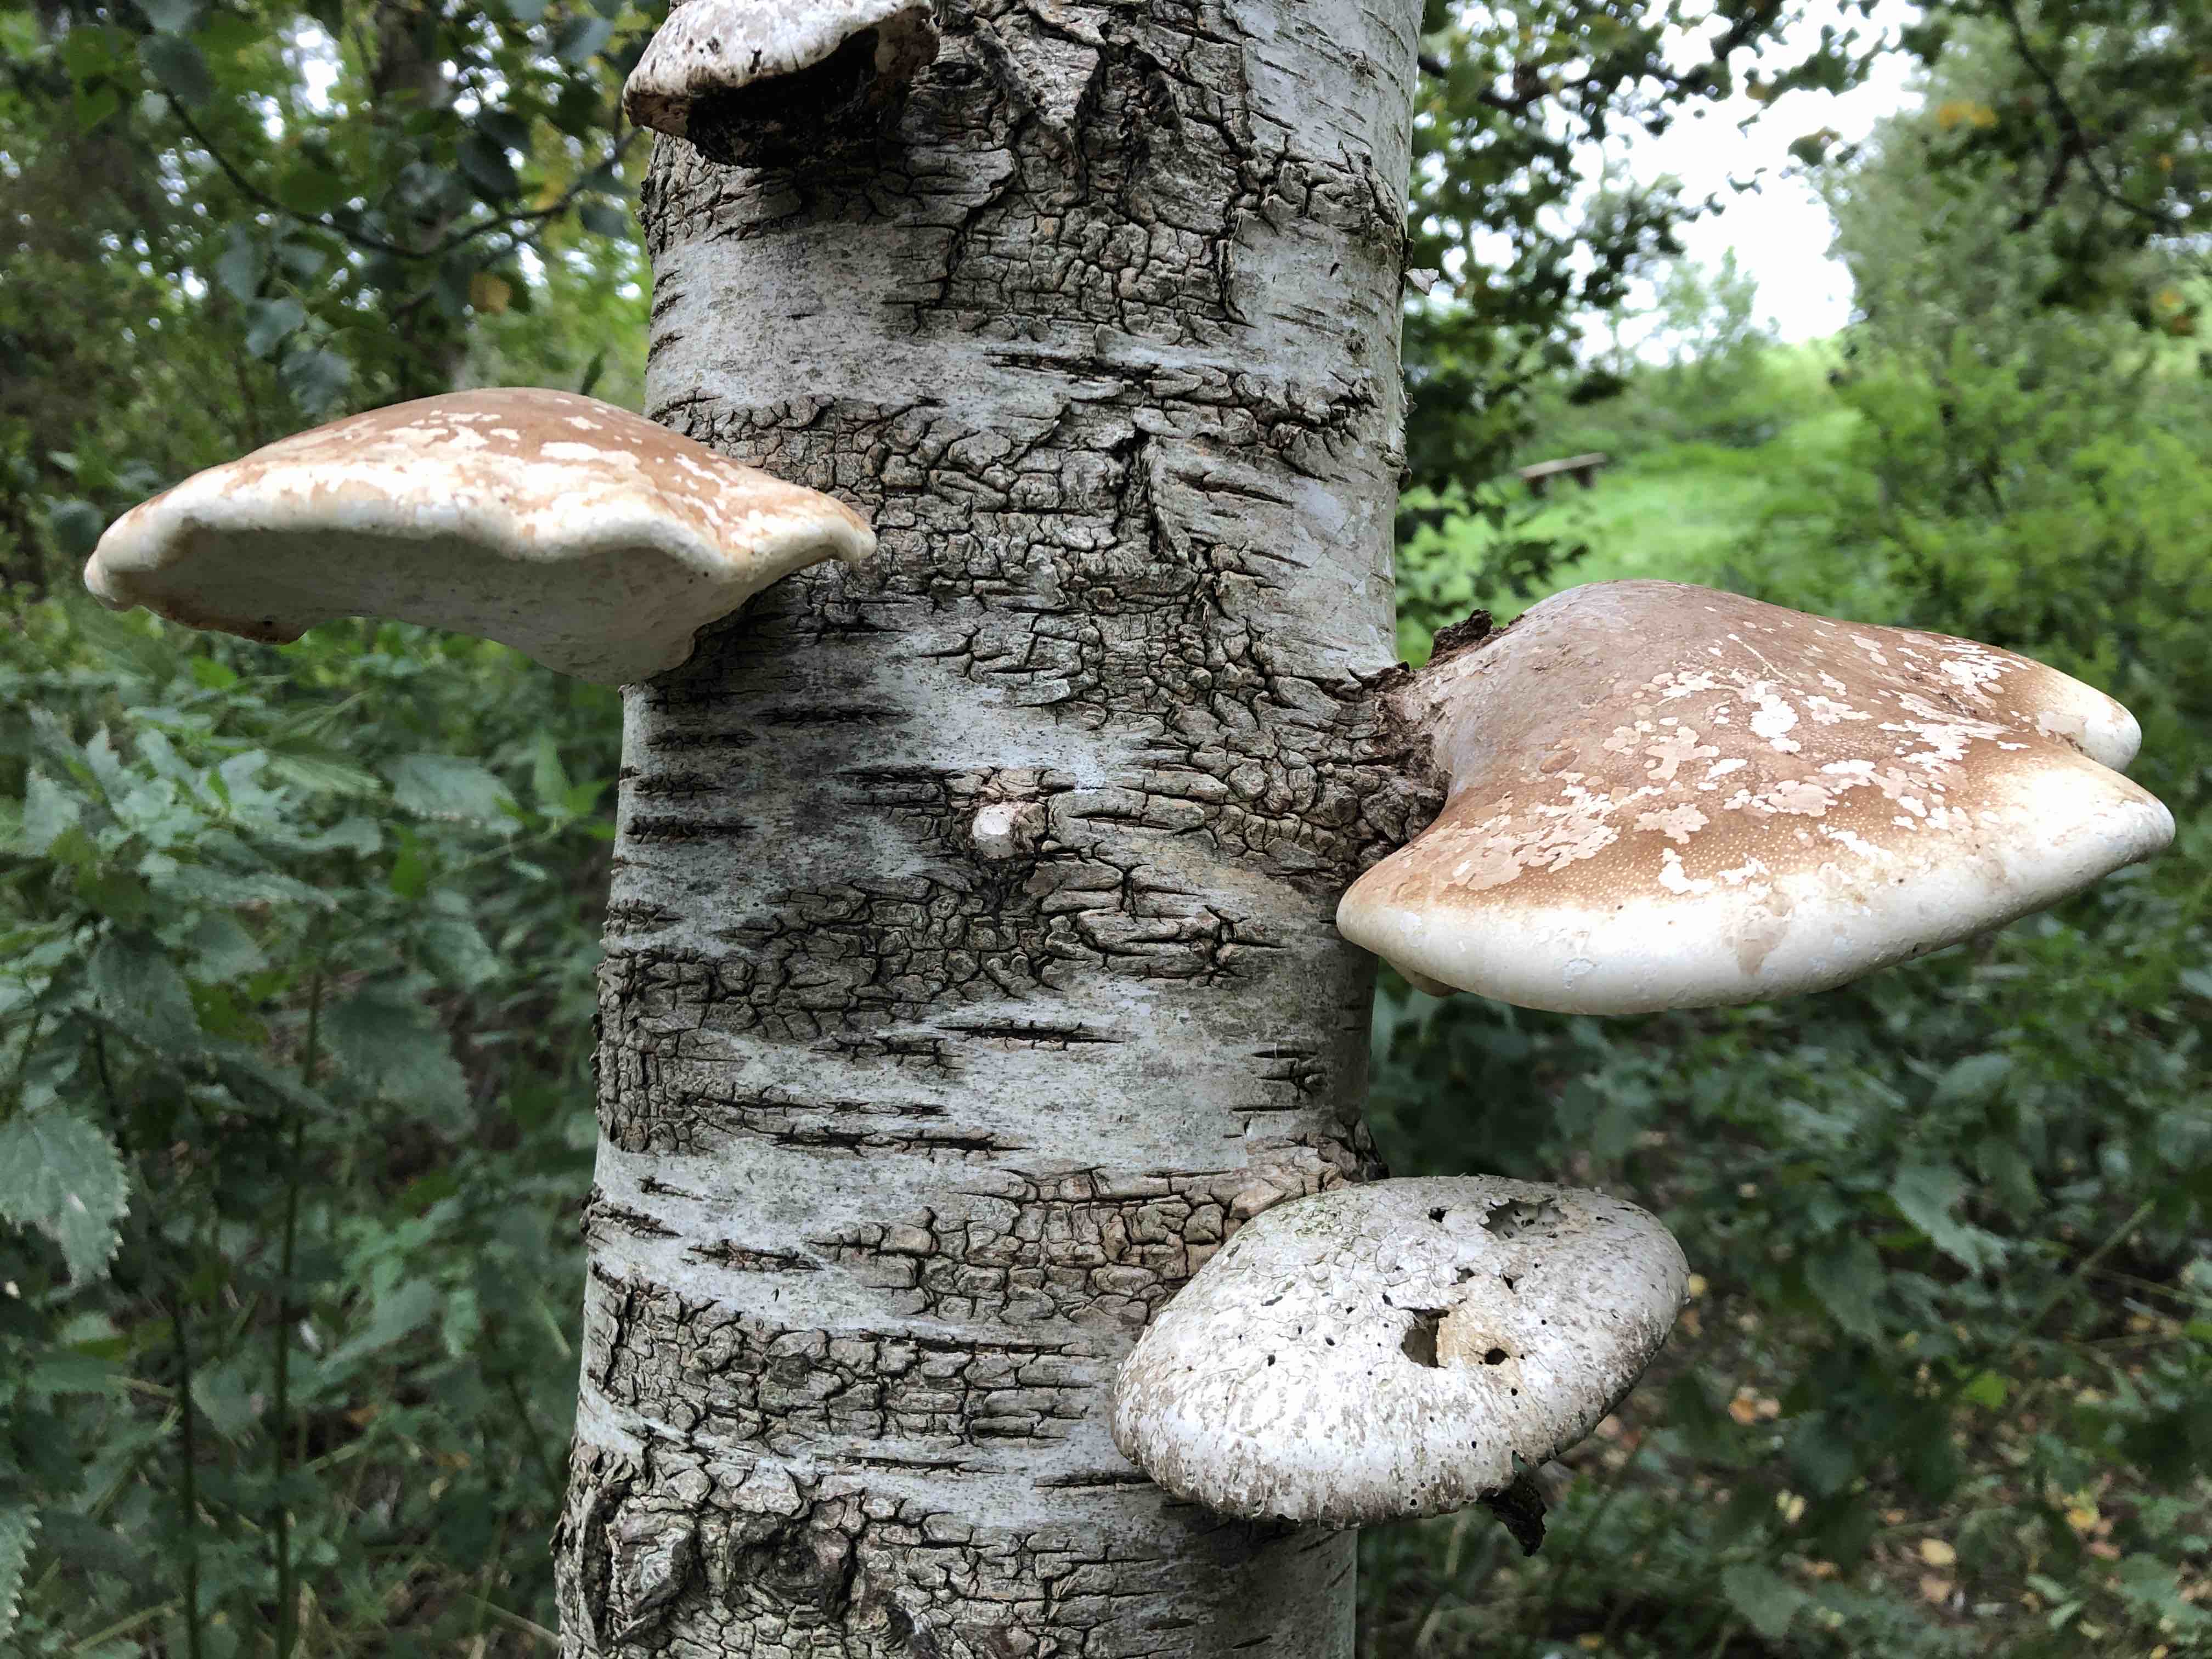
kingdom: Fungi
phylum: Basidiomycota
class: Agaricomycetes
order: Polyporales
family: Fomitopsidaceae
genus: Fomitopsis
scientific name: Fomitopsis betulina
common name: birkeporesvamp
